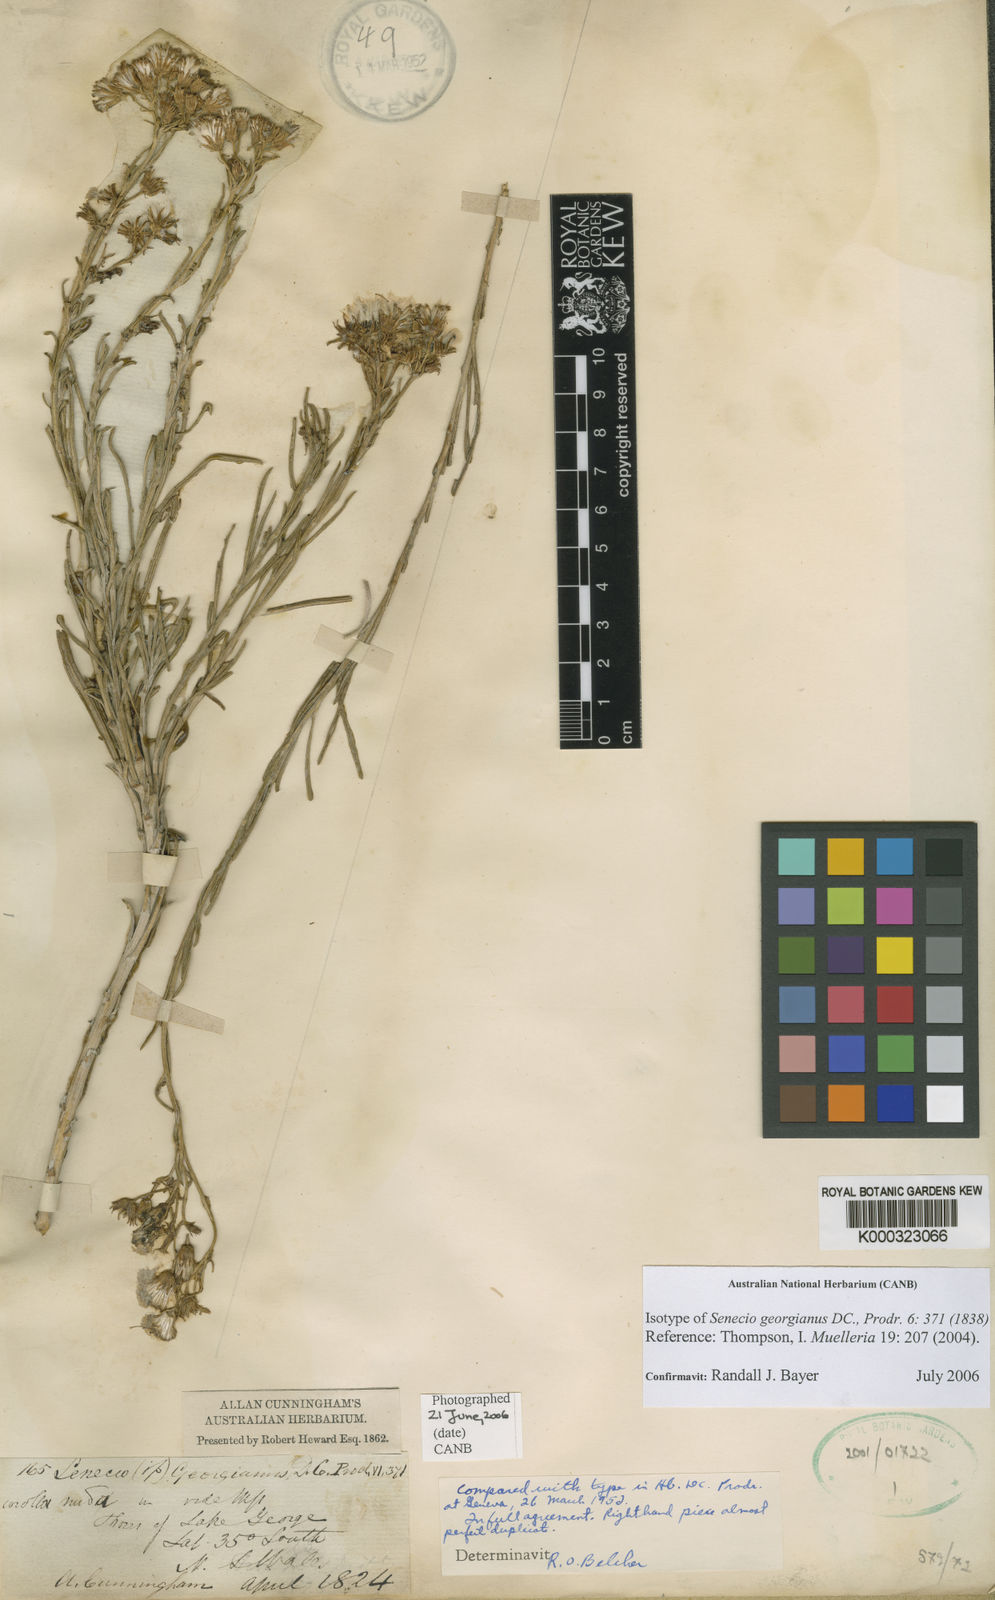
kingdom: Plantae
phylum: Tracheophyta
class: Magnoliopsida
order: Asterales
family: Asteraceae
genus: Senecio
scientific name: Senecio georgianus
